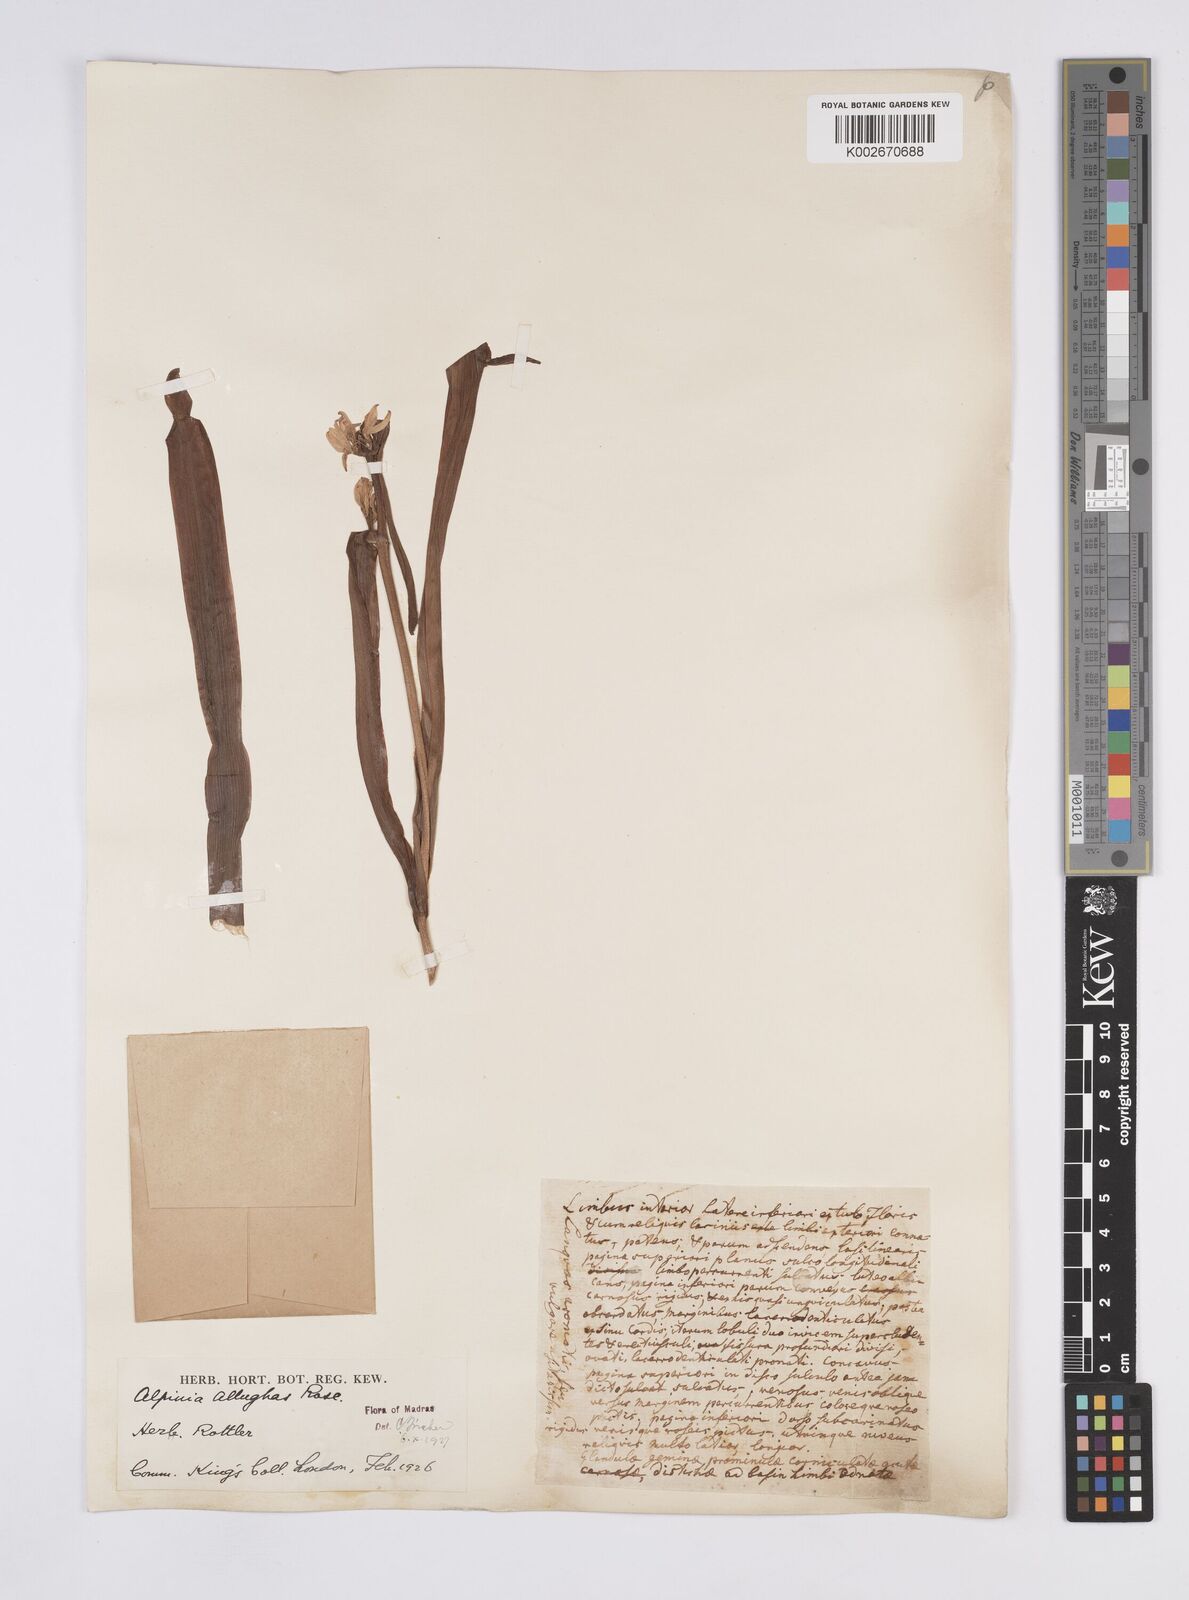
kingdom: Plantae
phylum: Tracheophyta
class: Liliopsida
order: Zingiberales
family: Zingiberaceae
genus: Alpinia
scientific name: Alpinia nigra
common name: Black fruited galanga
